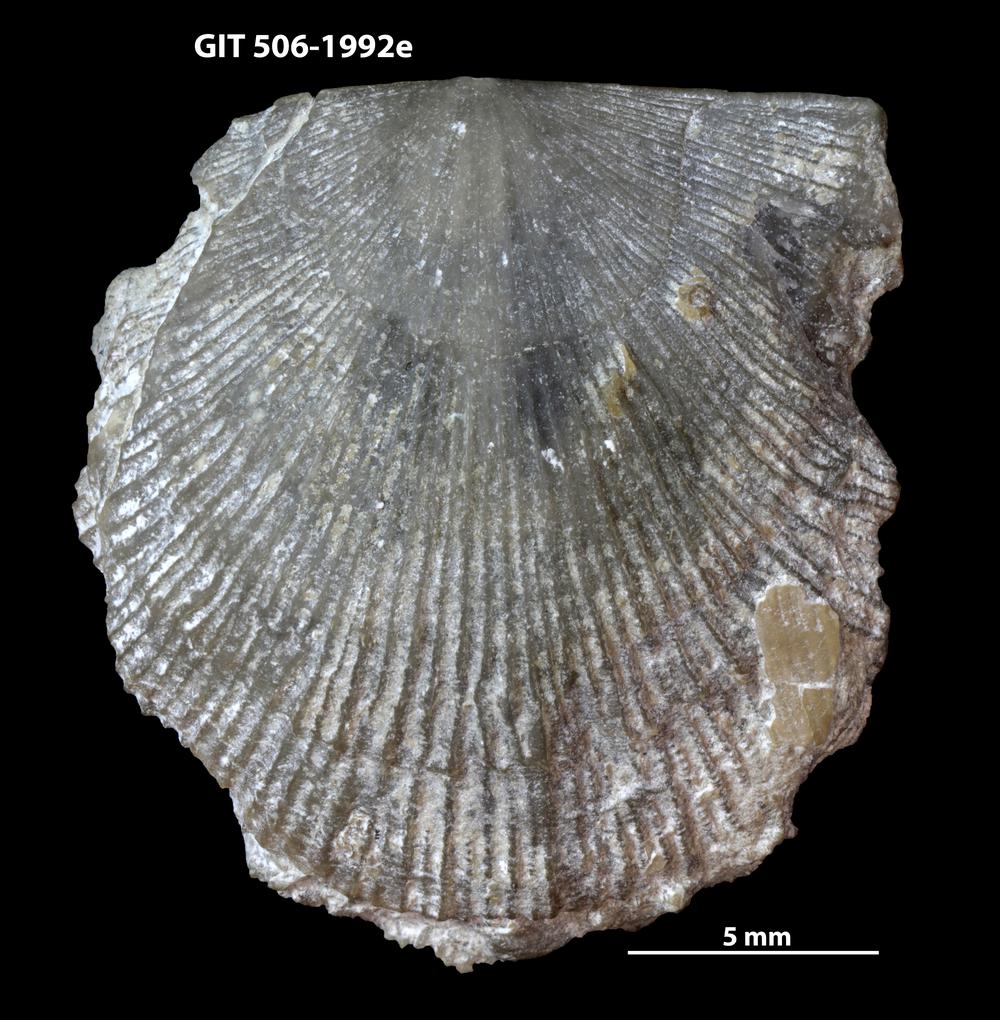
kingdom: Animalia
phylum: Brachiopoda
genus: Janiomya
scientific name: Janiomya Strophomena ornatella
